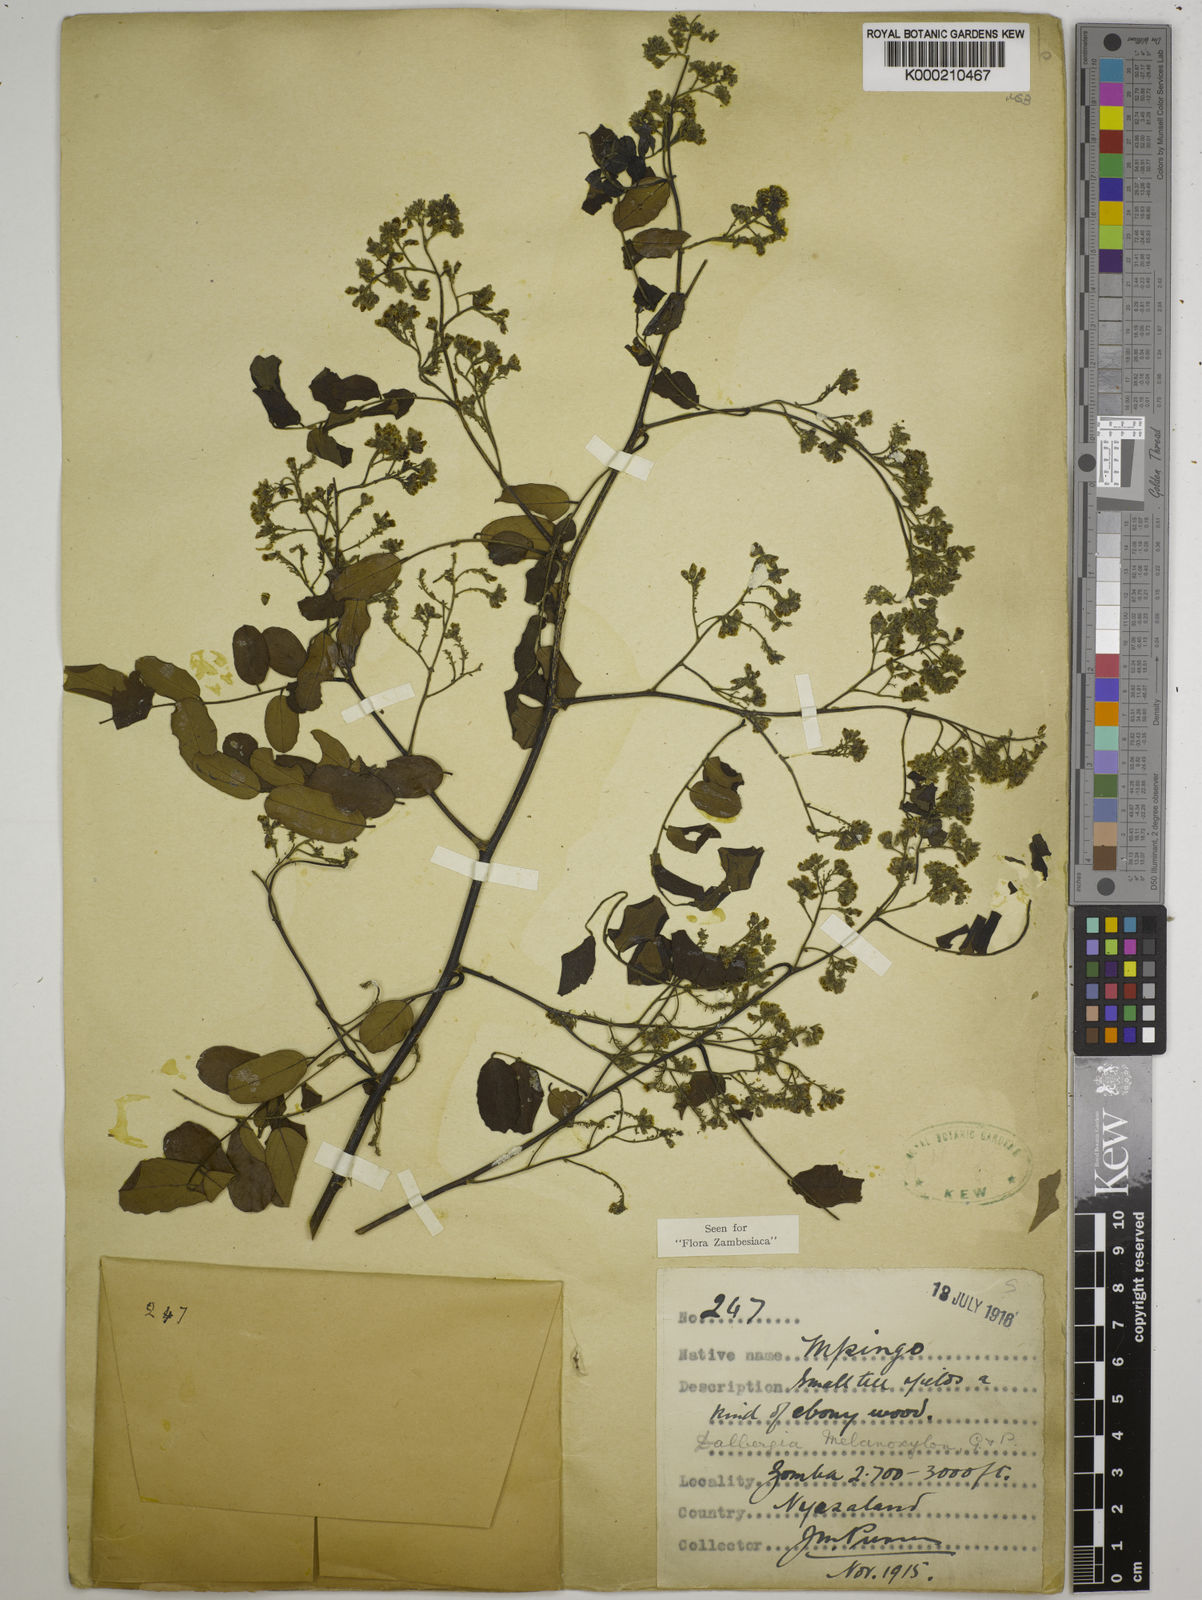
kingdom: Plantae
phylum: Tracheophyta
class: Magnoliopsida
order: Fabales
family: Fabaceae
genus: Dalbergia
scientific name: Dalbergia melanoxylon
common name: African blackwood
